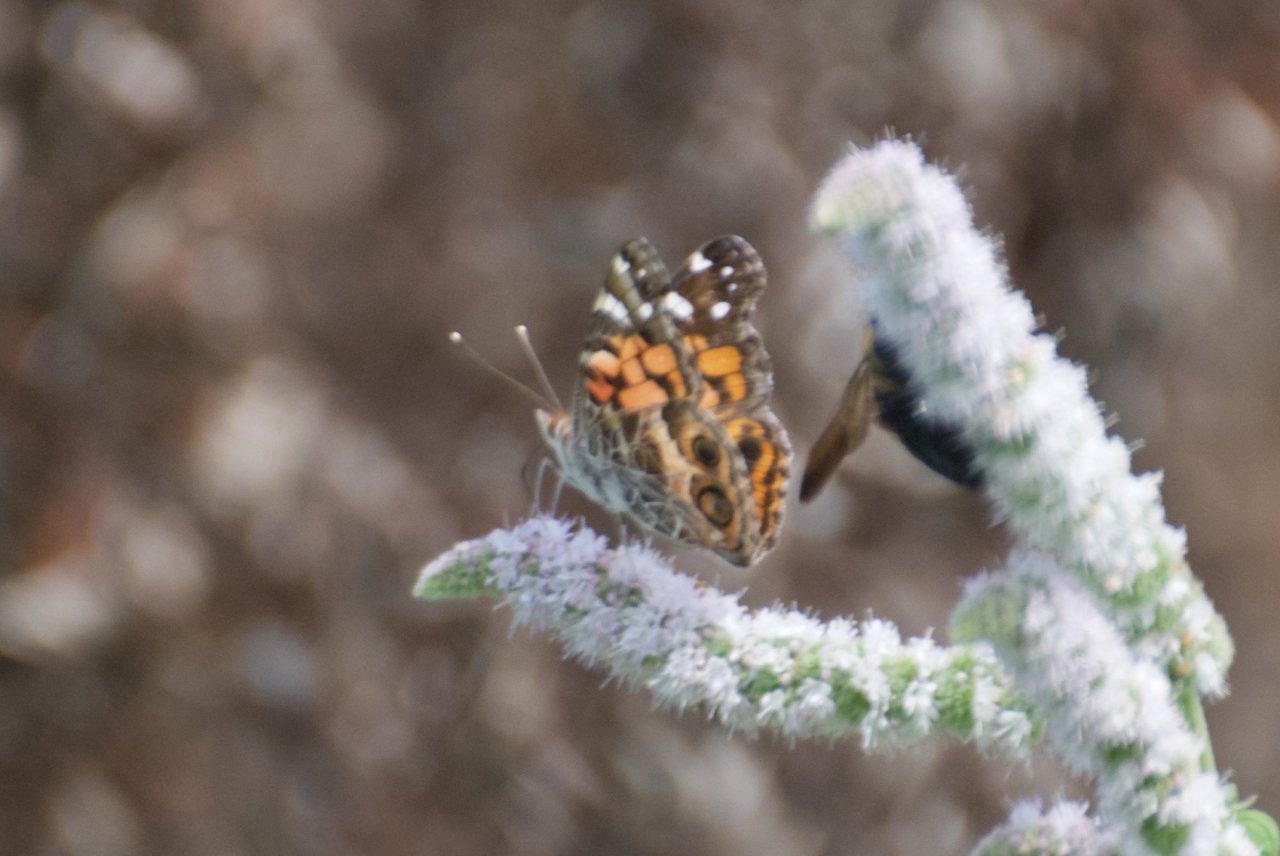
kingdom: Animalia
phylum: Arthropoda
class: Insecta
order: Lepidoptera
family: Nymphalidae
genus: Vanessa
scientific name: Vanessa virginiensis
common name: American Lady
